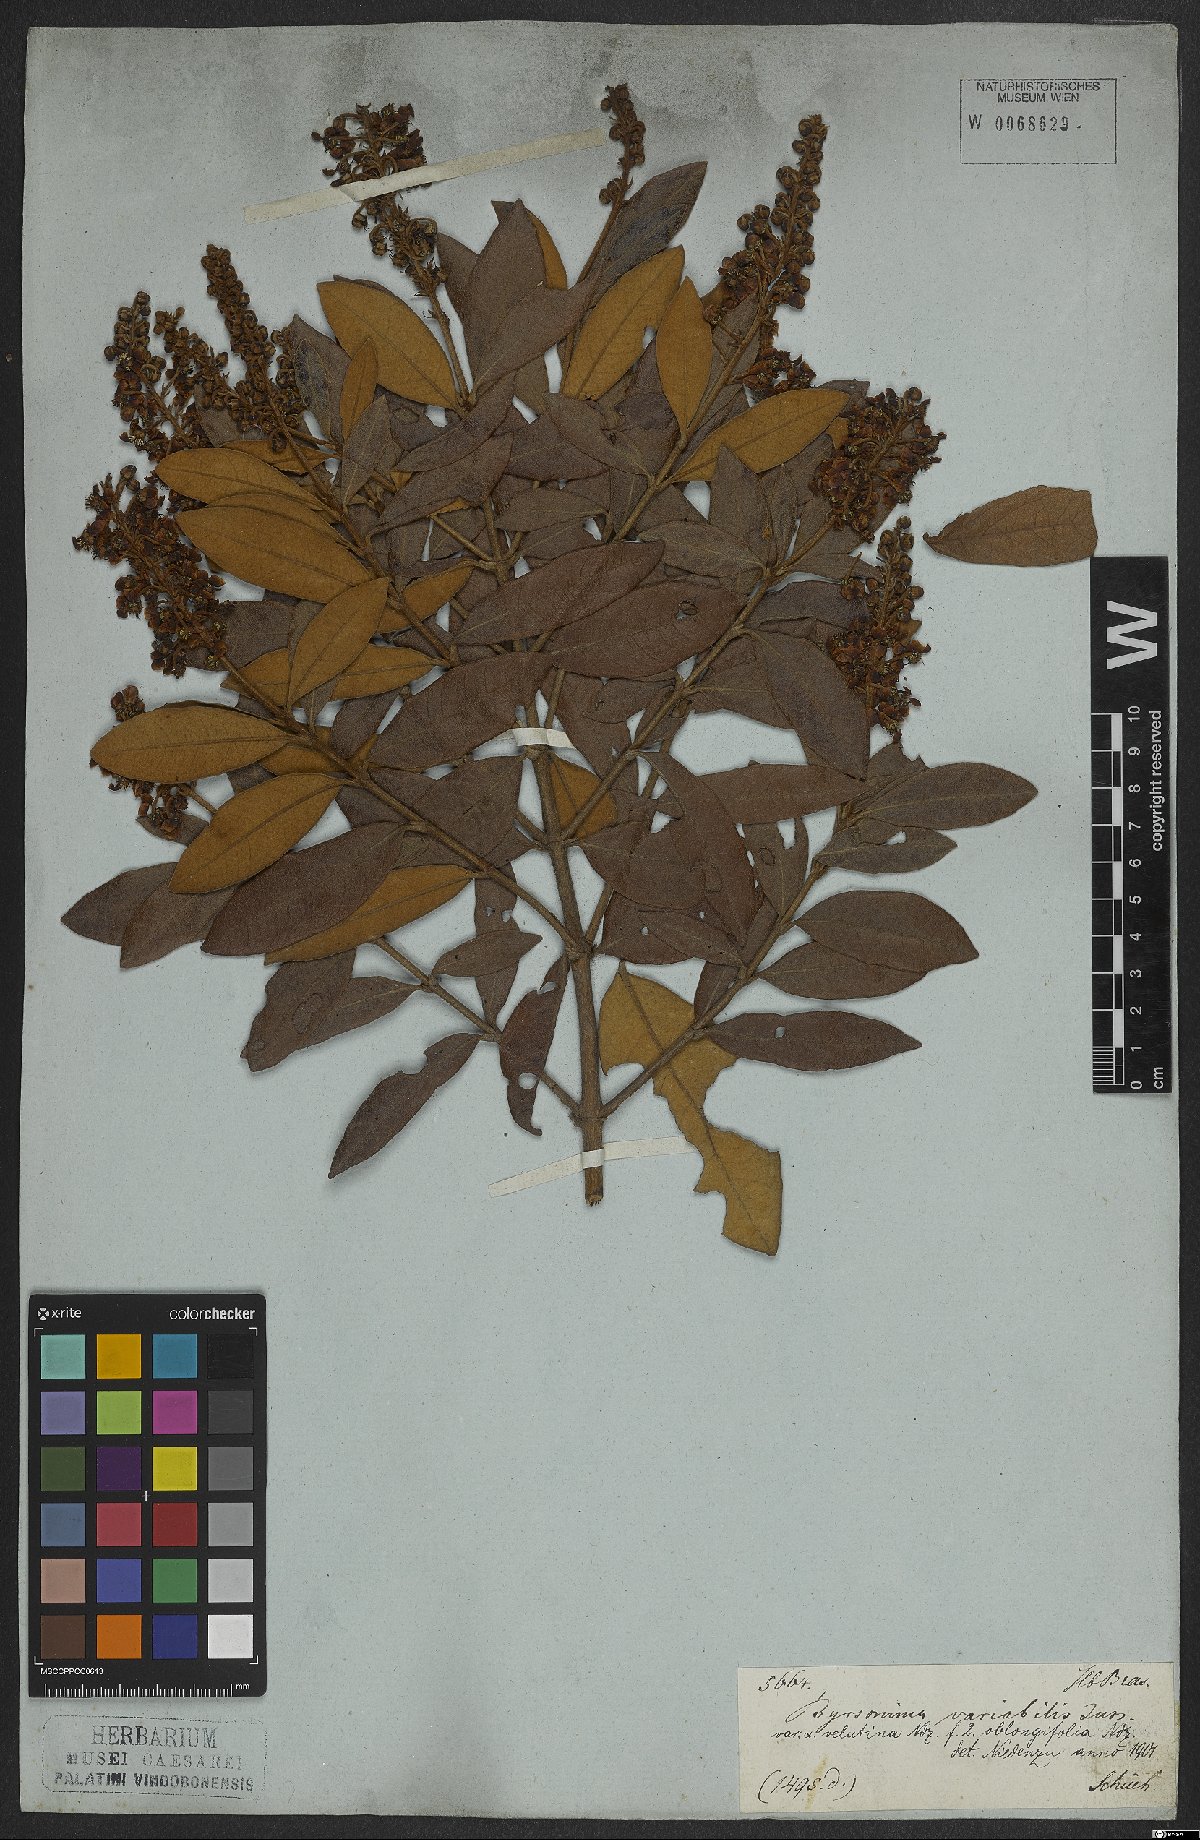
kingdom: Plantae
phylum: Tracheophyta
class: Magnoliopsida
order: Malpighiales
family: Malpighiaceae
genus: Byrsonima
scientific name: Byrsonima variabilis
